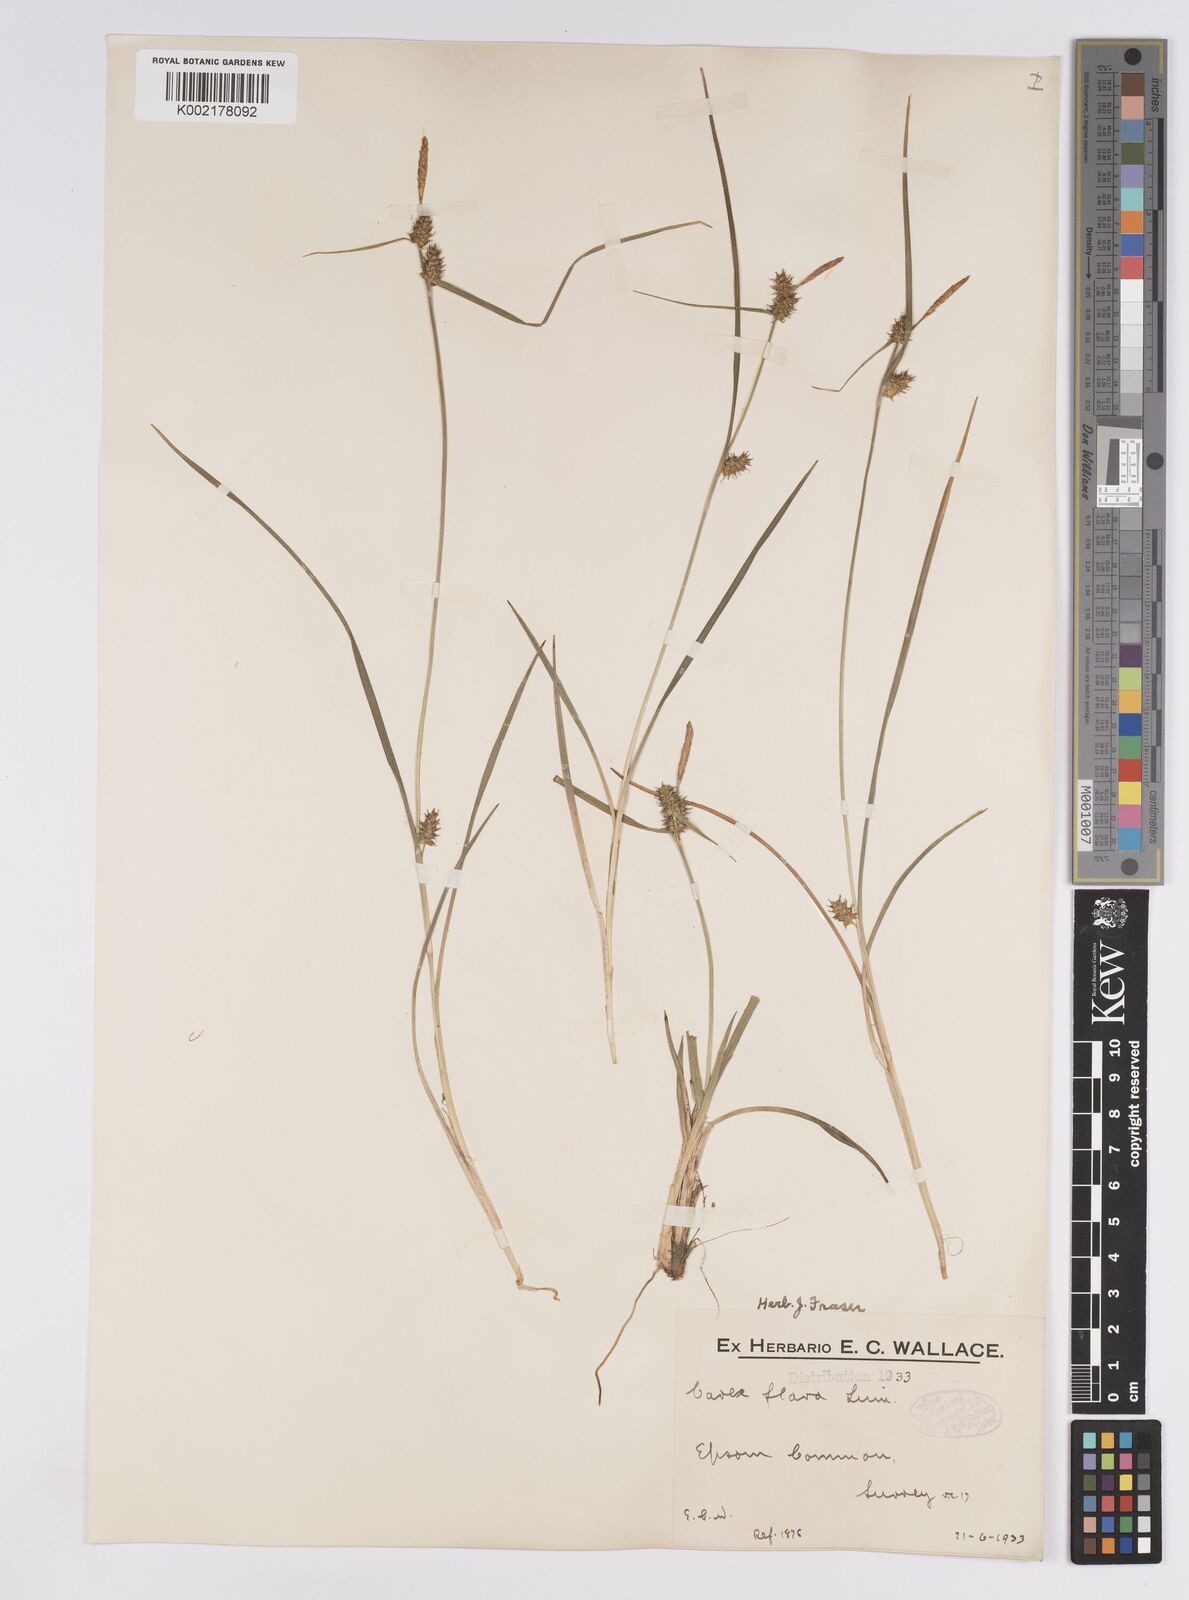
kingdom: Plantae
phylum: Tracheophyta
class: Liliopsida
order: Poales
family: Cyperaceae
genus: Carex
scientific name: Carex demissa
